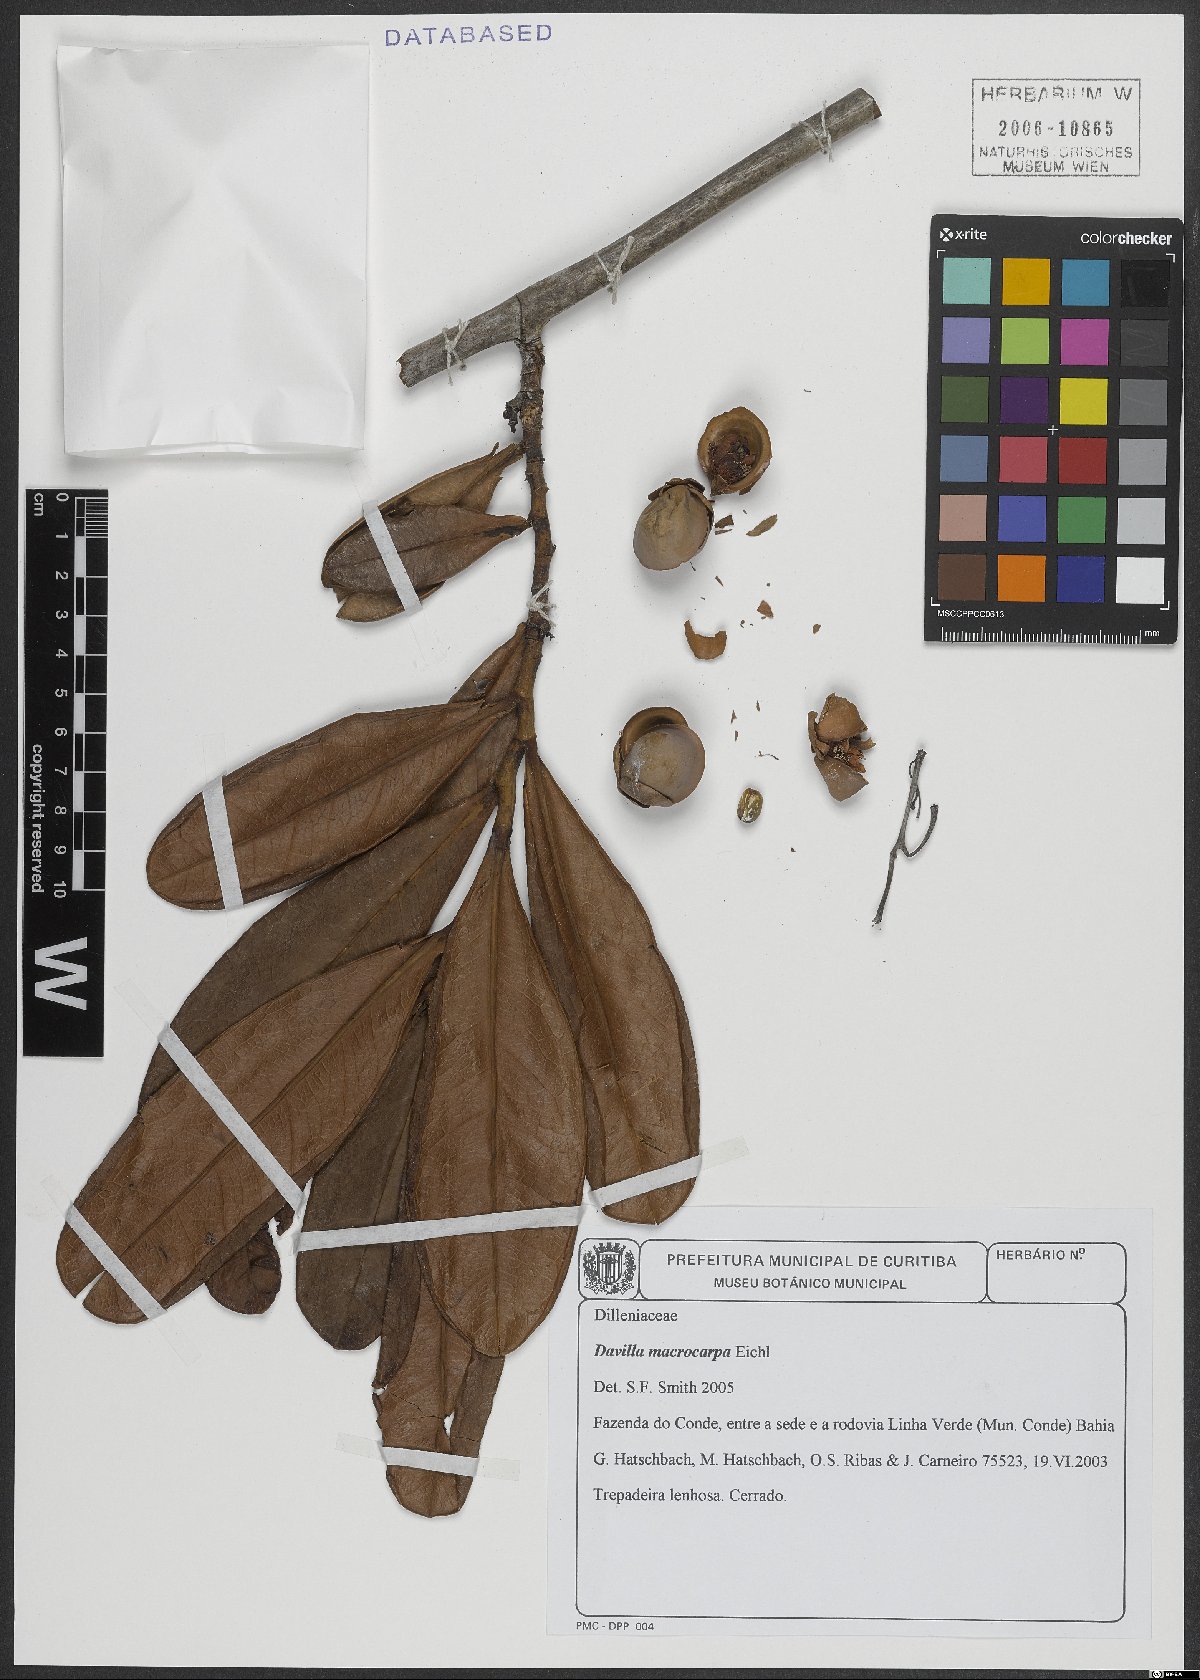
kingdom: Plantae
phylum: Tracheophyta
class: Magnoliopsida
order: Dilleniales
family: Dilleniaceae
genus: Davilla
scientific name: Davilla macrocarpa
